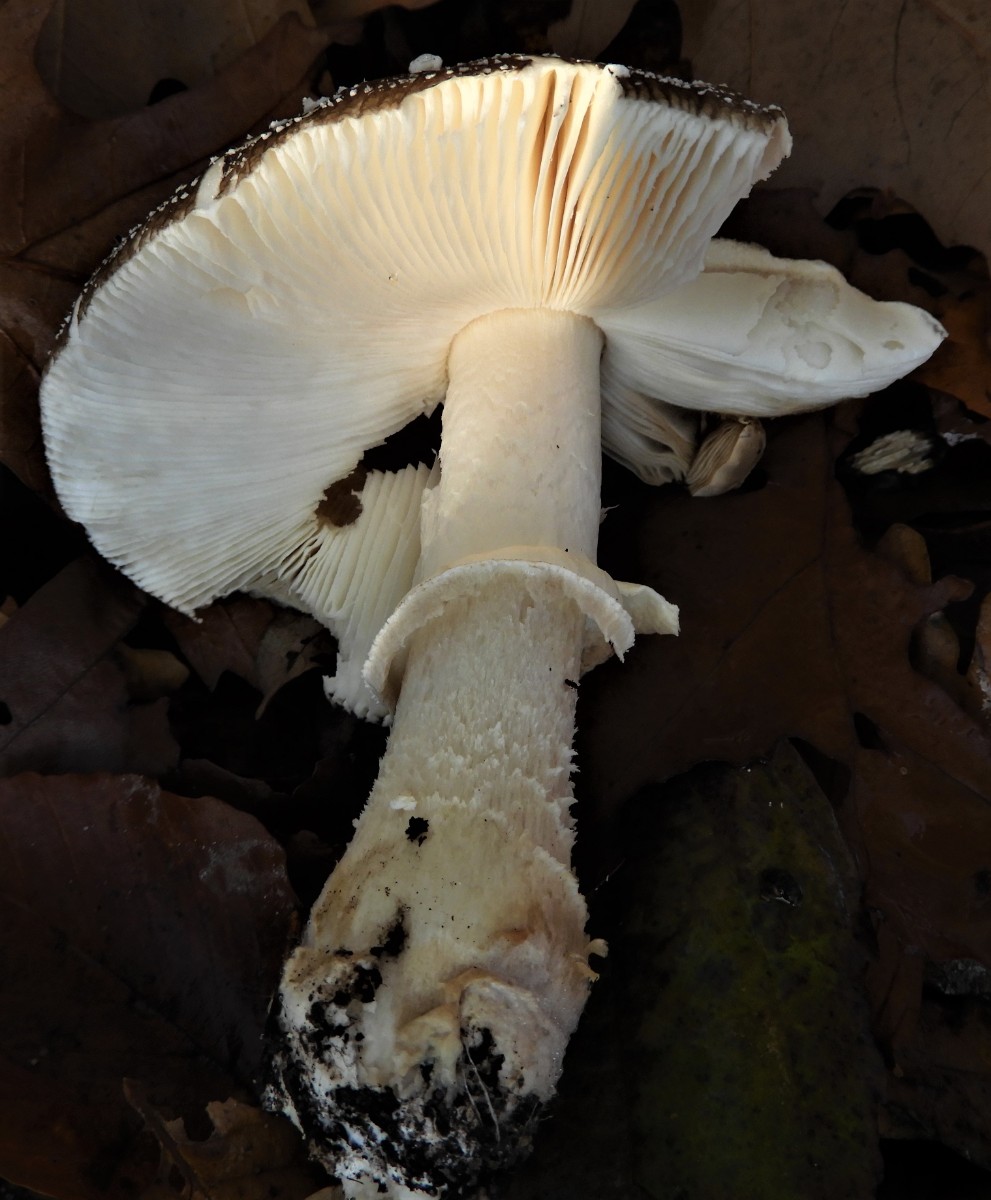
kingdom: Fungi
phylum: Basidiomycota
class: Agaricomycetes
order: Agaricales
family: Amanitaceae
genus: Amanita
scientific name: Amanita pantherina
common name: panter-fluesvamp
